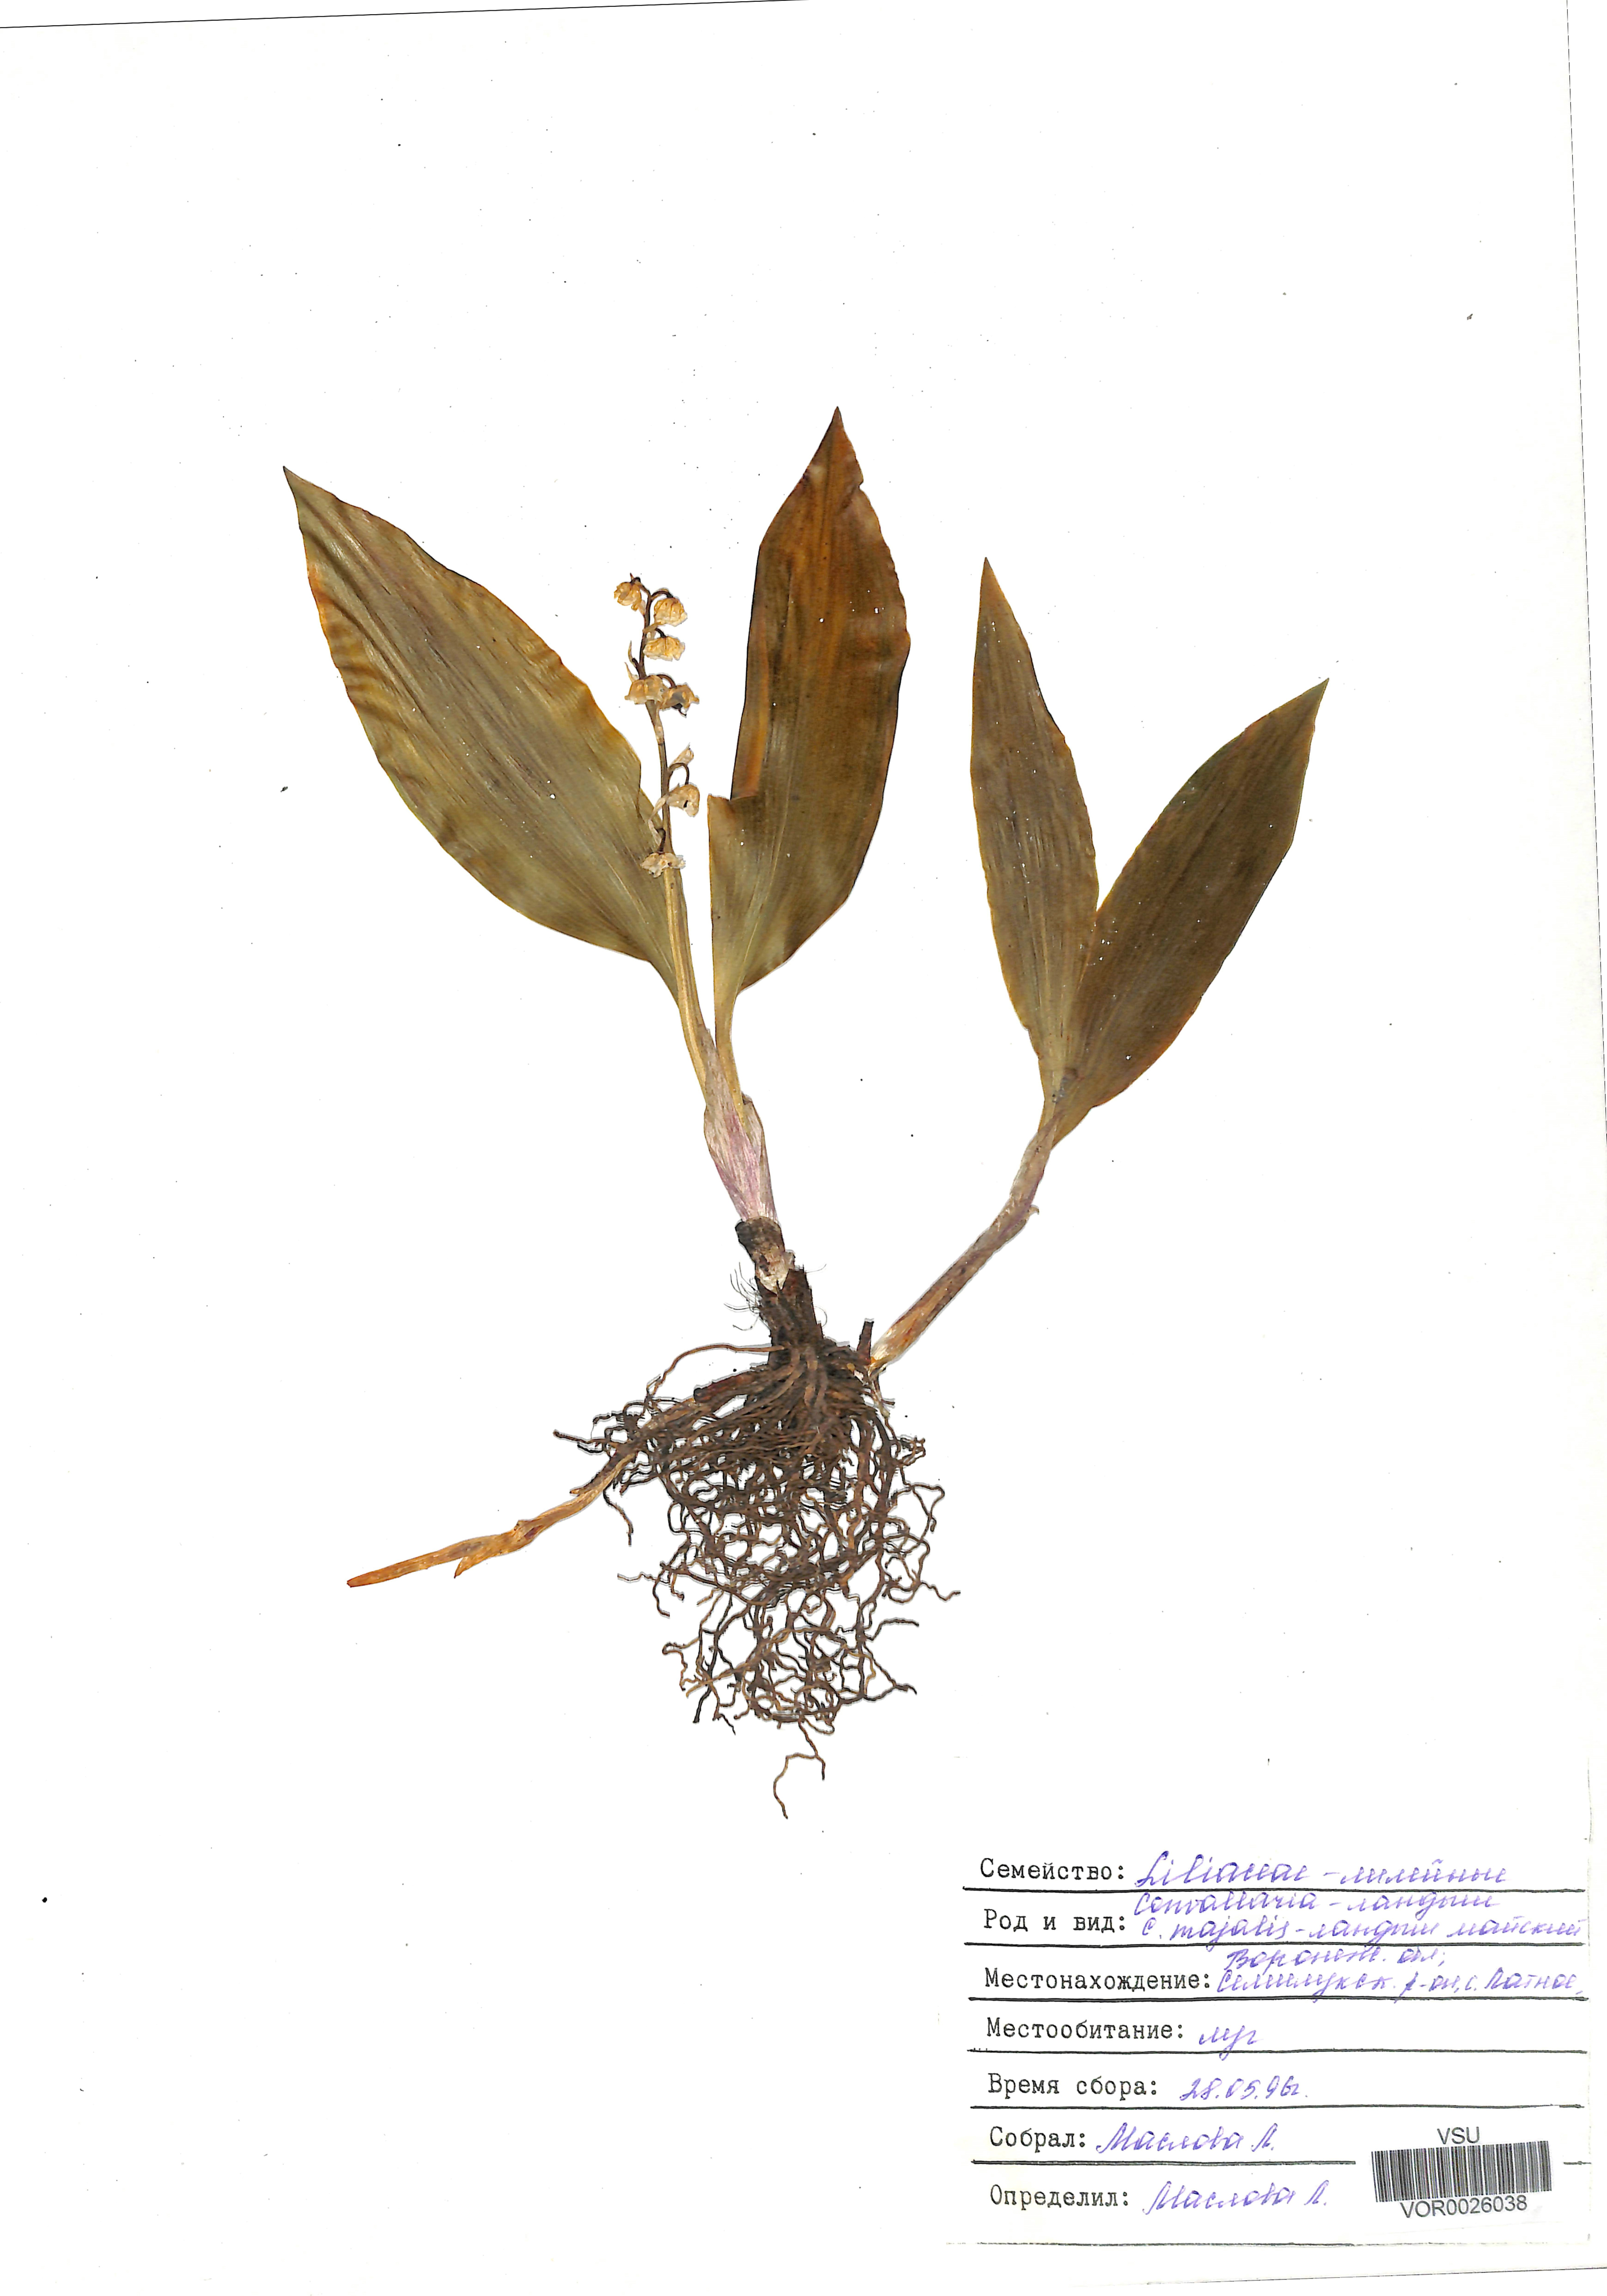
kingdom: Plantae
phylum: Tracheophyta
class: Liliopsida
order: Asparagales
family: Asparagaceae
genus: Convallaria
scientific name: Convallaria majalis
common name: Lily-of-the-valley
